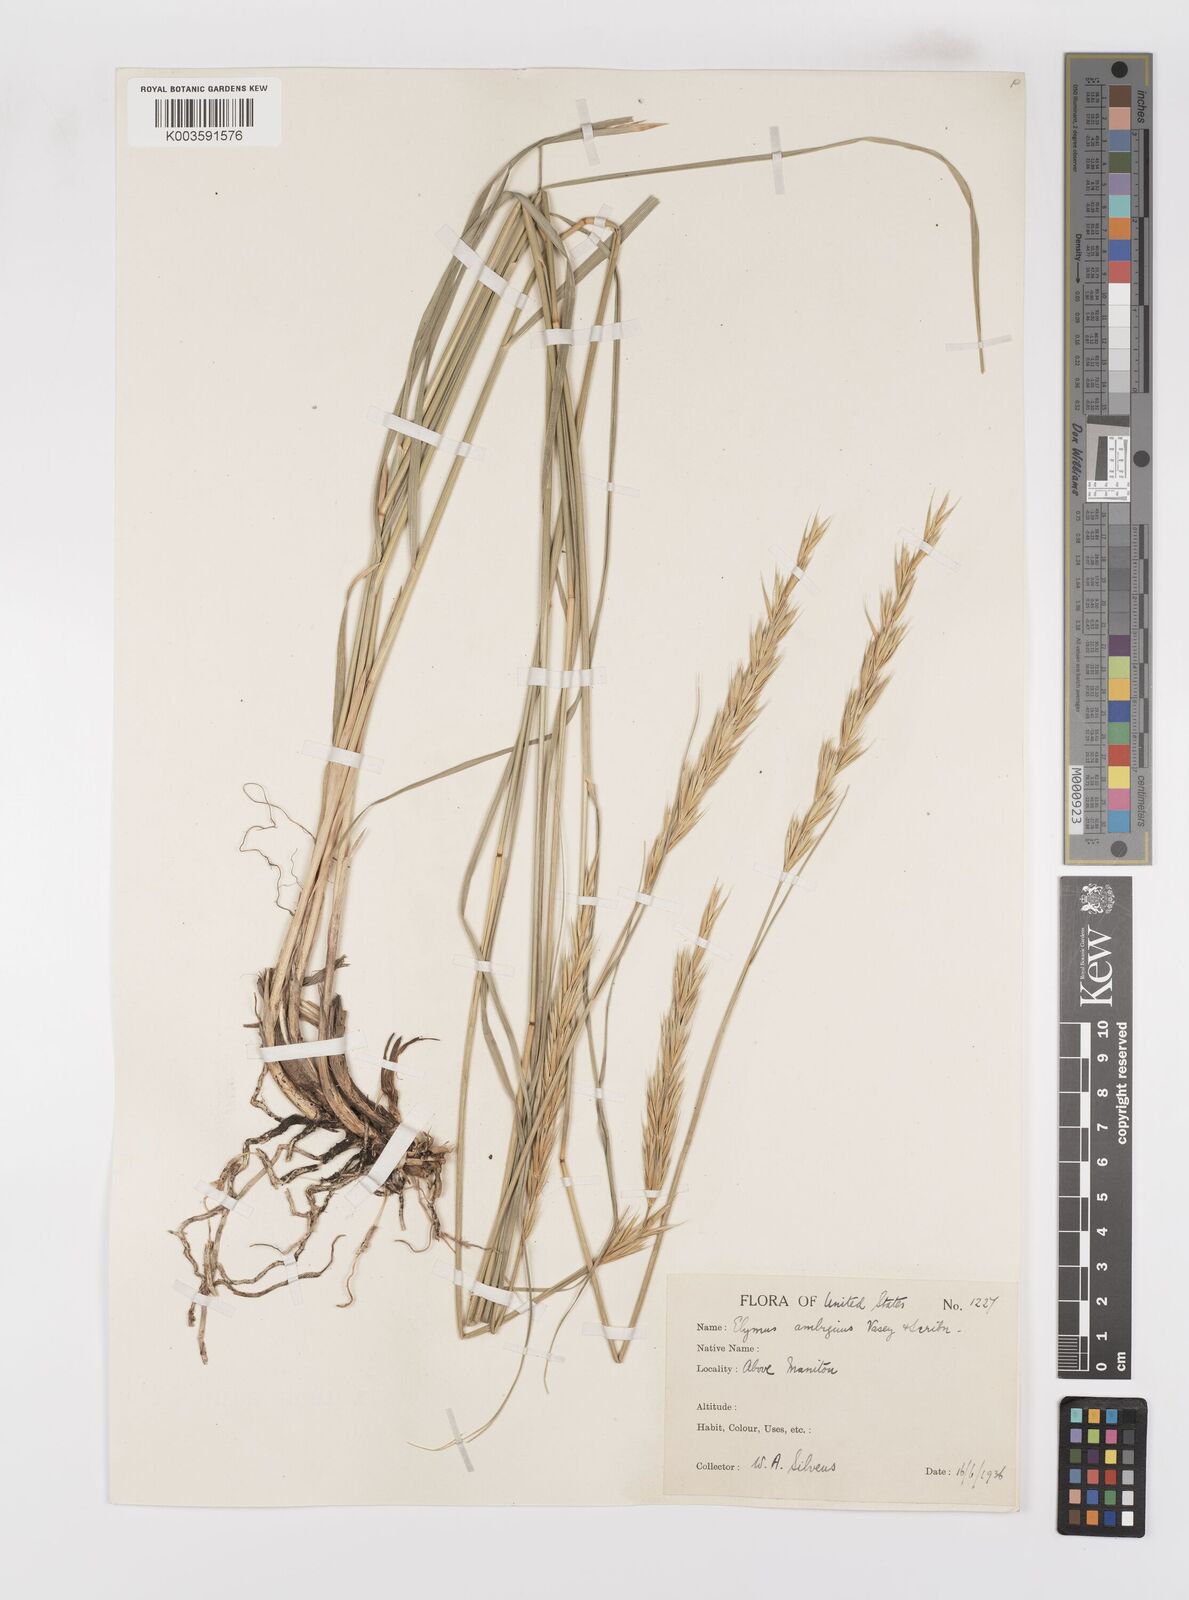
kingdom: Plantae
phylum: Tracheophyta
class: Liliopsida
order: Poales
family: Poaceae
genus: Leymus
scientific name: Leymus ambiguus
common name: Colorado wild rye
